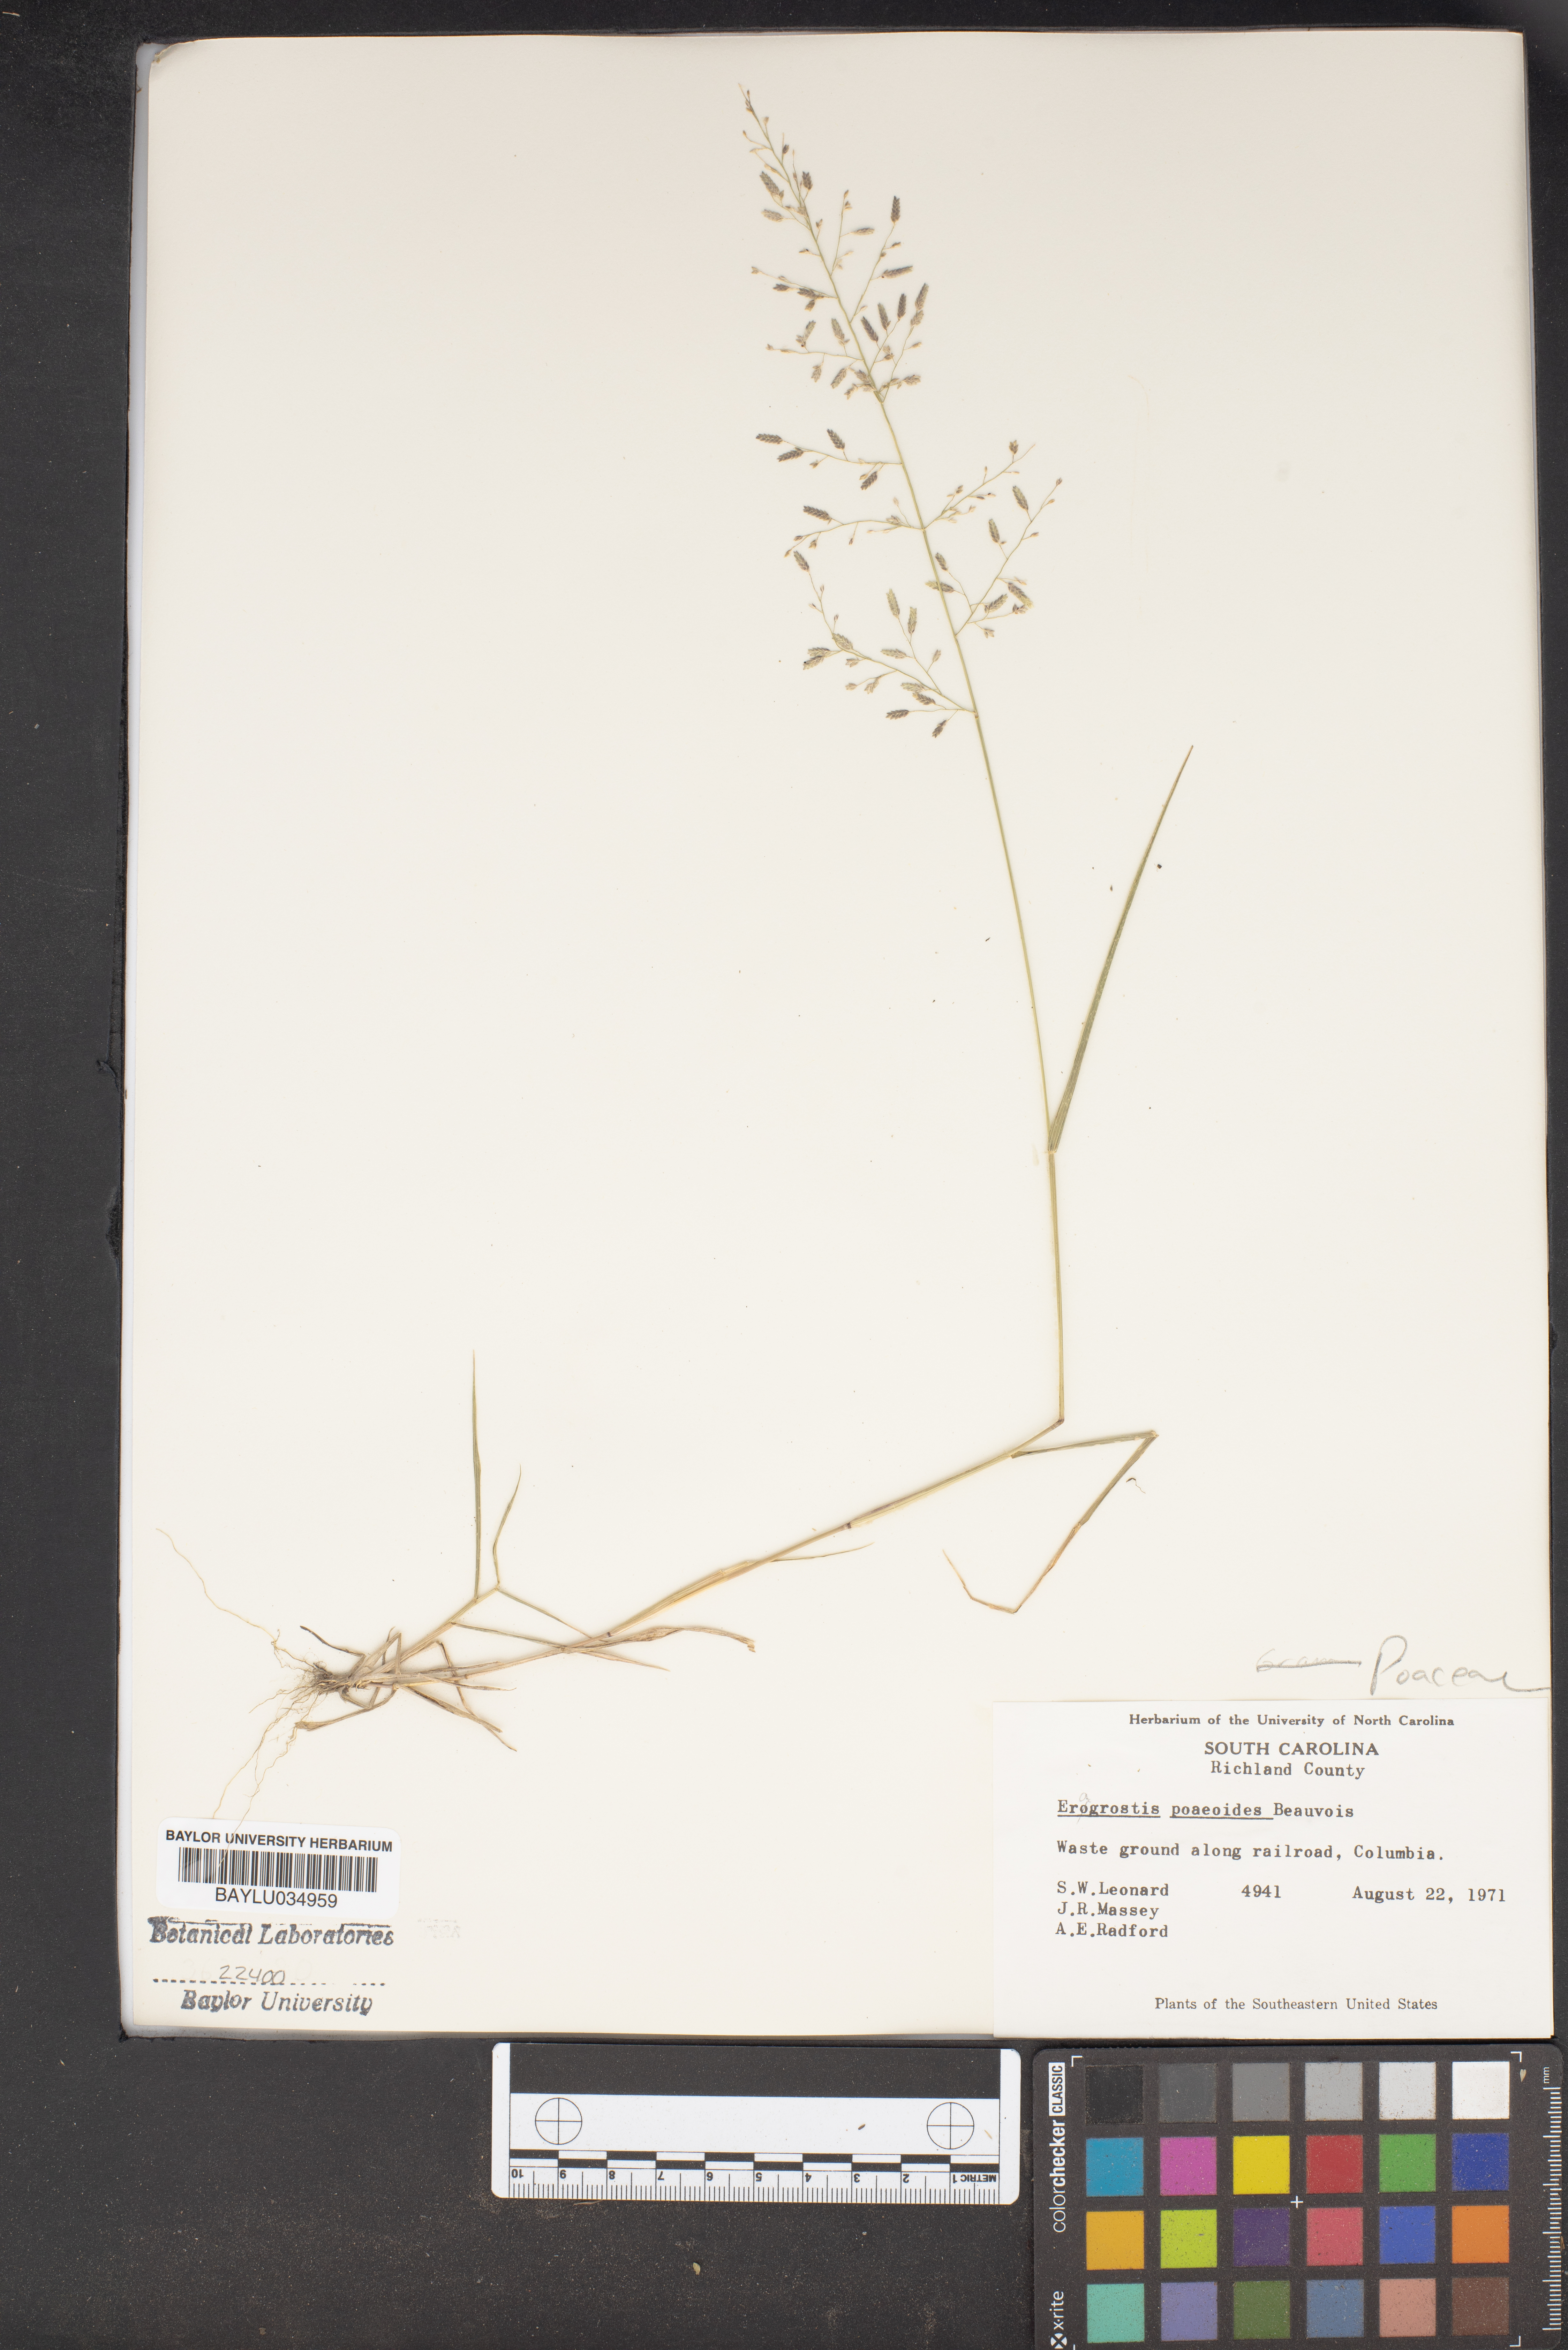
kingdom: Plantae
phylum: Tracheophyta
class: Liliopsida
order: Poales
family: Poaceae
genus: Eragrostis
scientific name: Eragrostis minor
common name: Small love-grass
